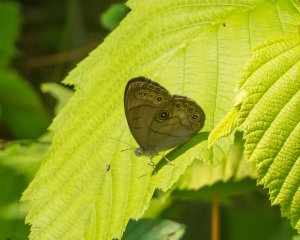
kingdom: Animalia
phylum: Arthropoda
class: Insecta
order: Lepidoptera
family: Nymphalidae
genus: Lethe
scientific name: Lethe eurydice
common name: Appalachian Eyed Brown
